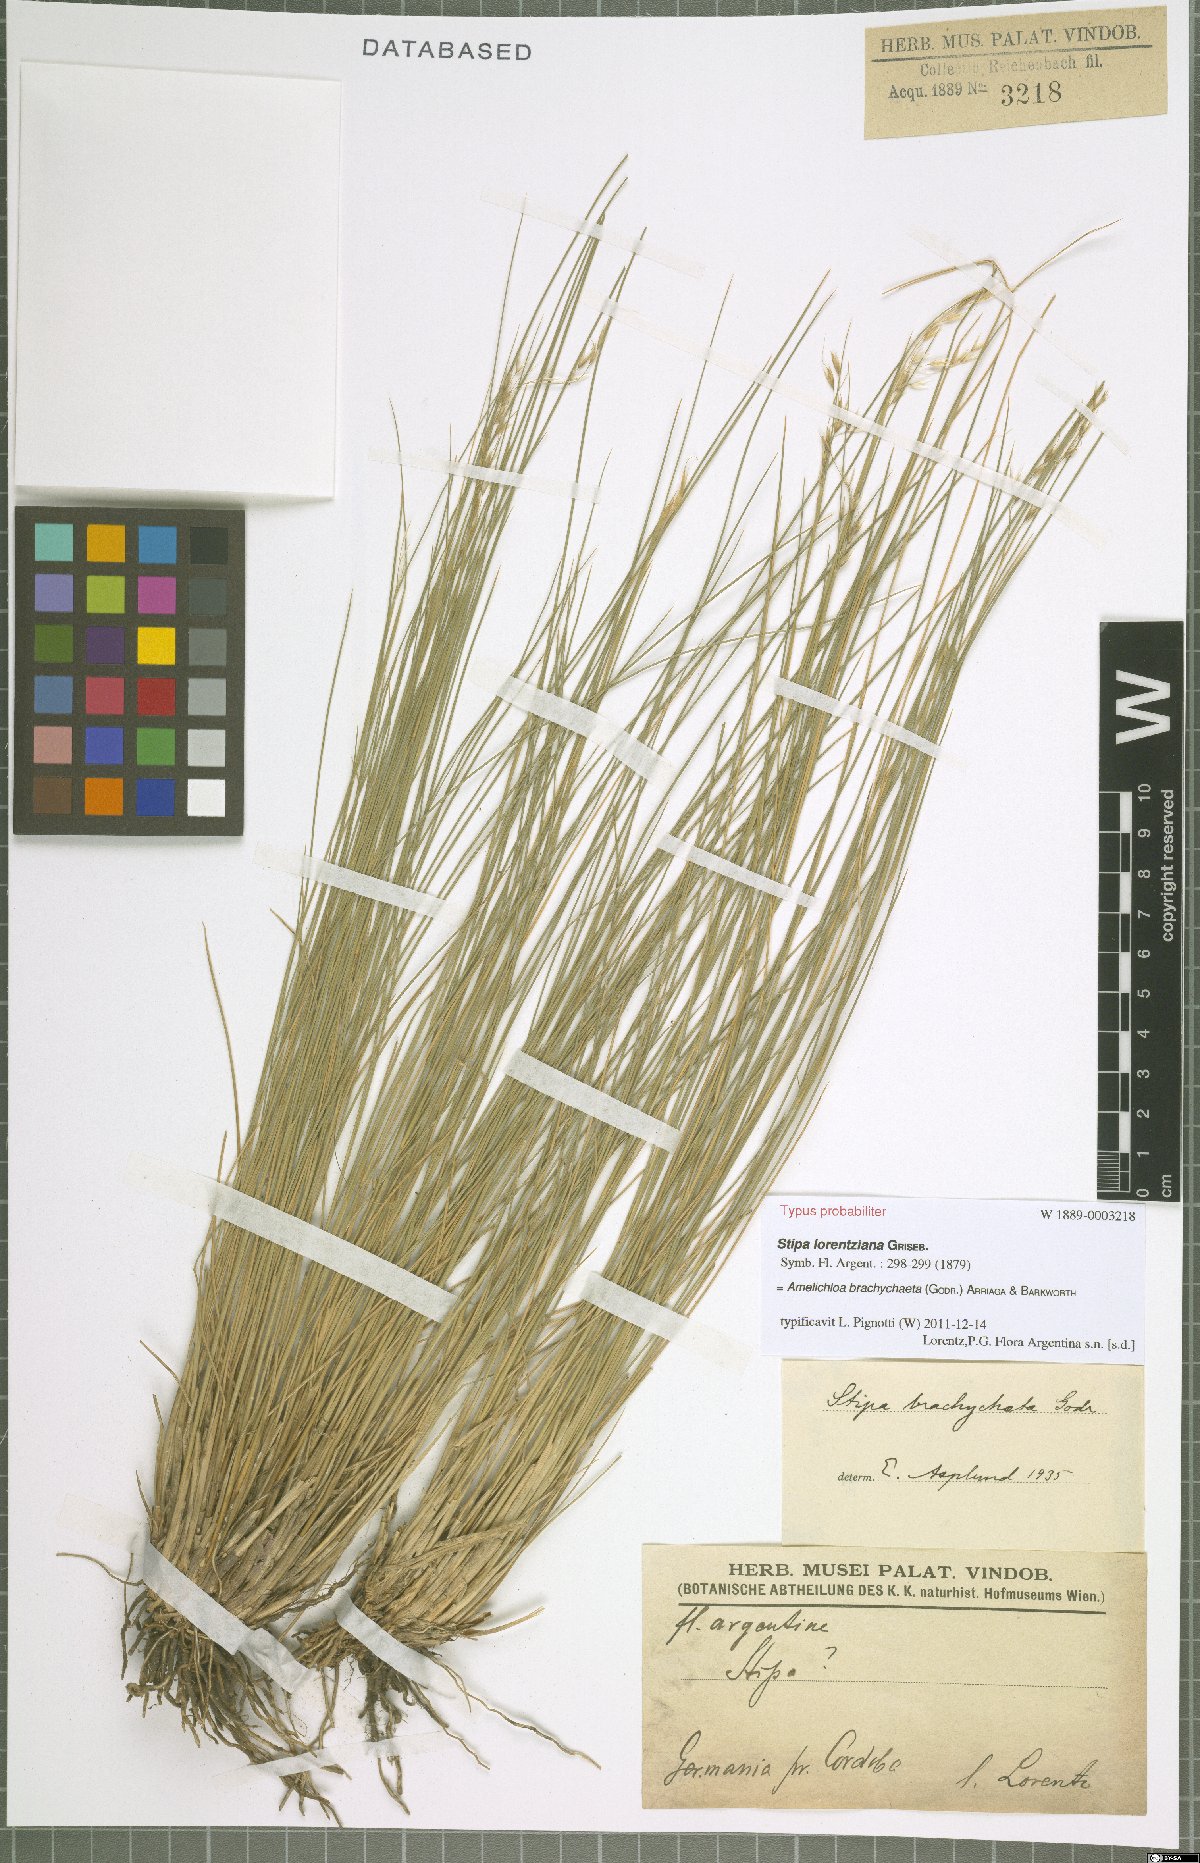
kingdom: Plantae
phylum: Tracheophyta
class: Liliopsida
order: Poales
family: Poaceae
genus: Amelichloa
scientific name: Amelichloa brachychaeta
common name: Shortbristled needlegrass
